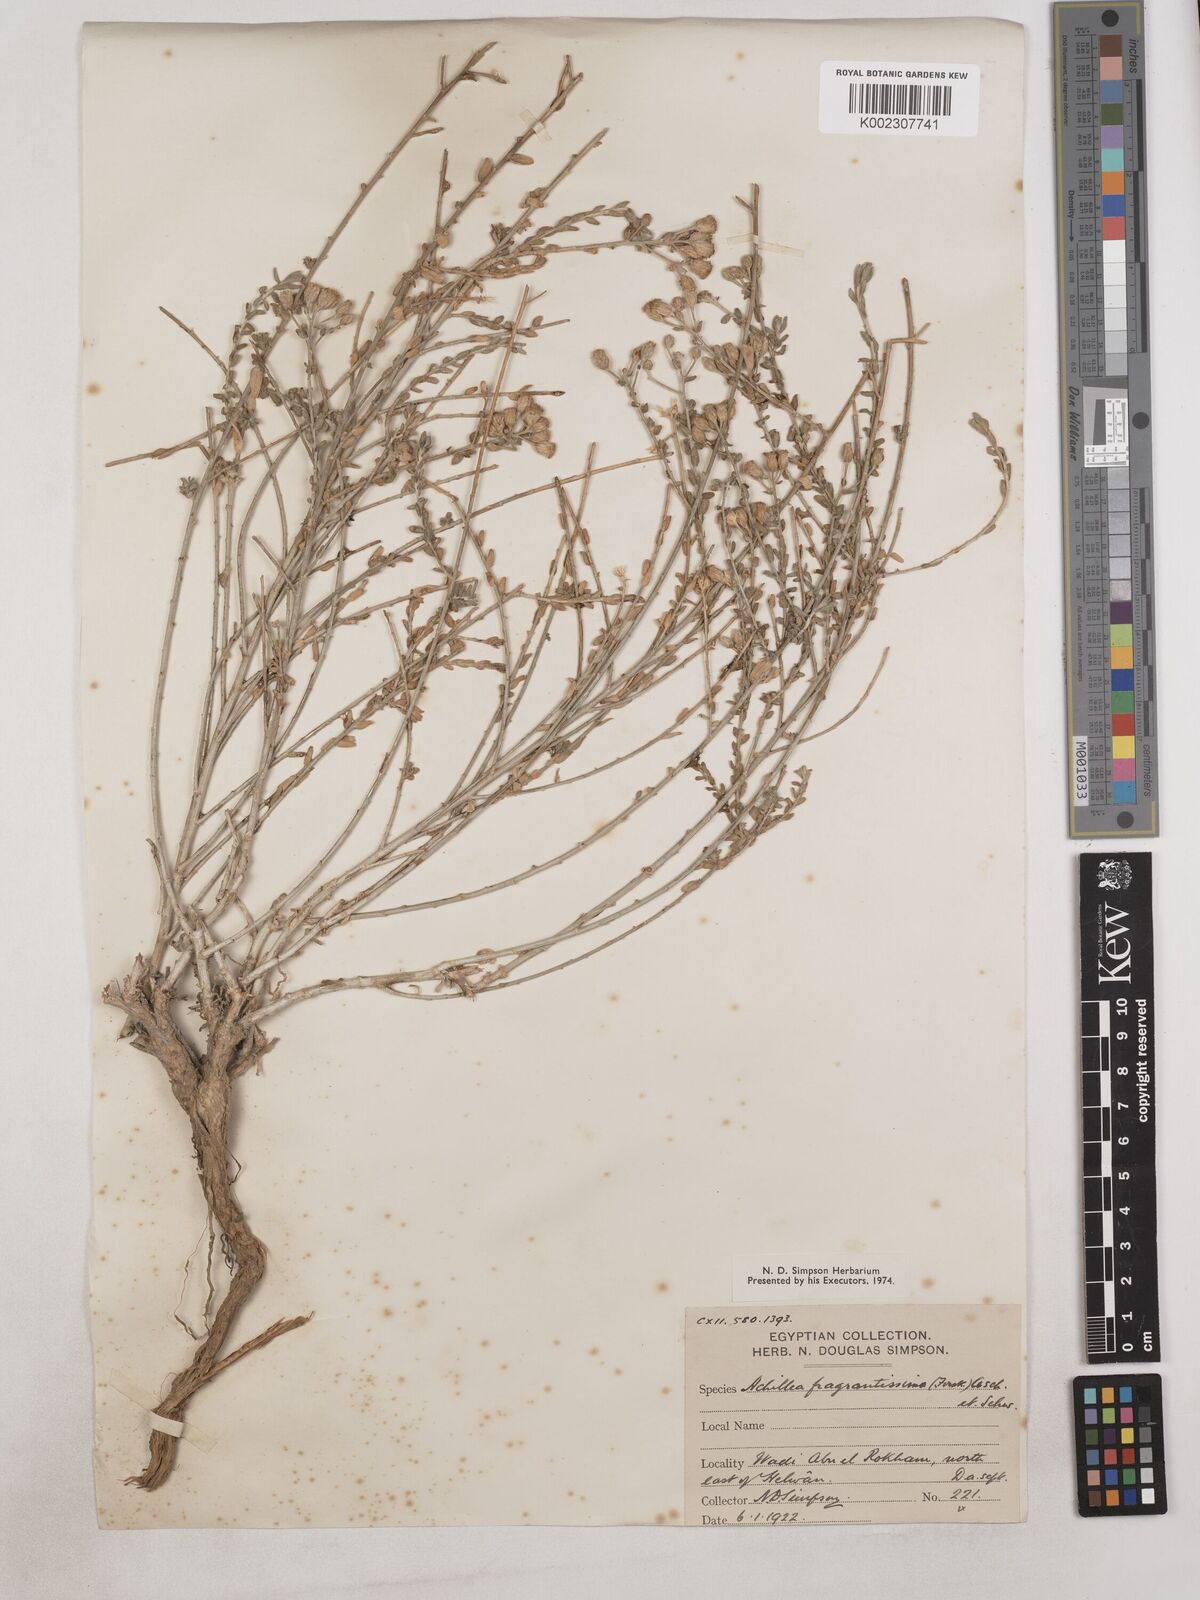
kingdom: Plantae
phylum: Tracheophyta
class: Magnoliopsida
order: Asterales
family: Asteraceae
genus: Achillea
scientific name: Achillea fragrantissima
